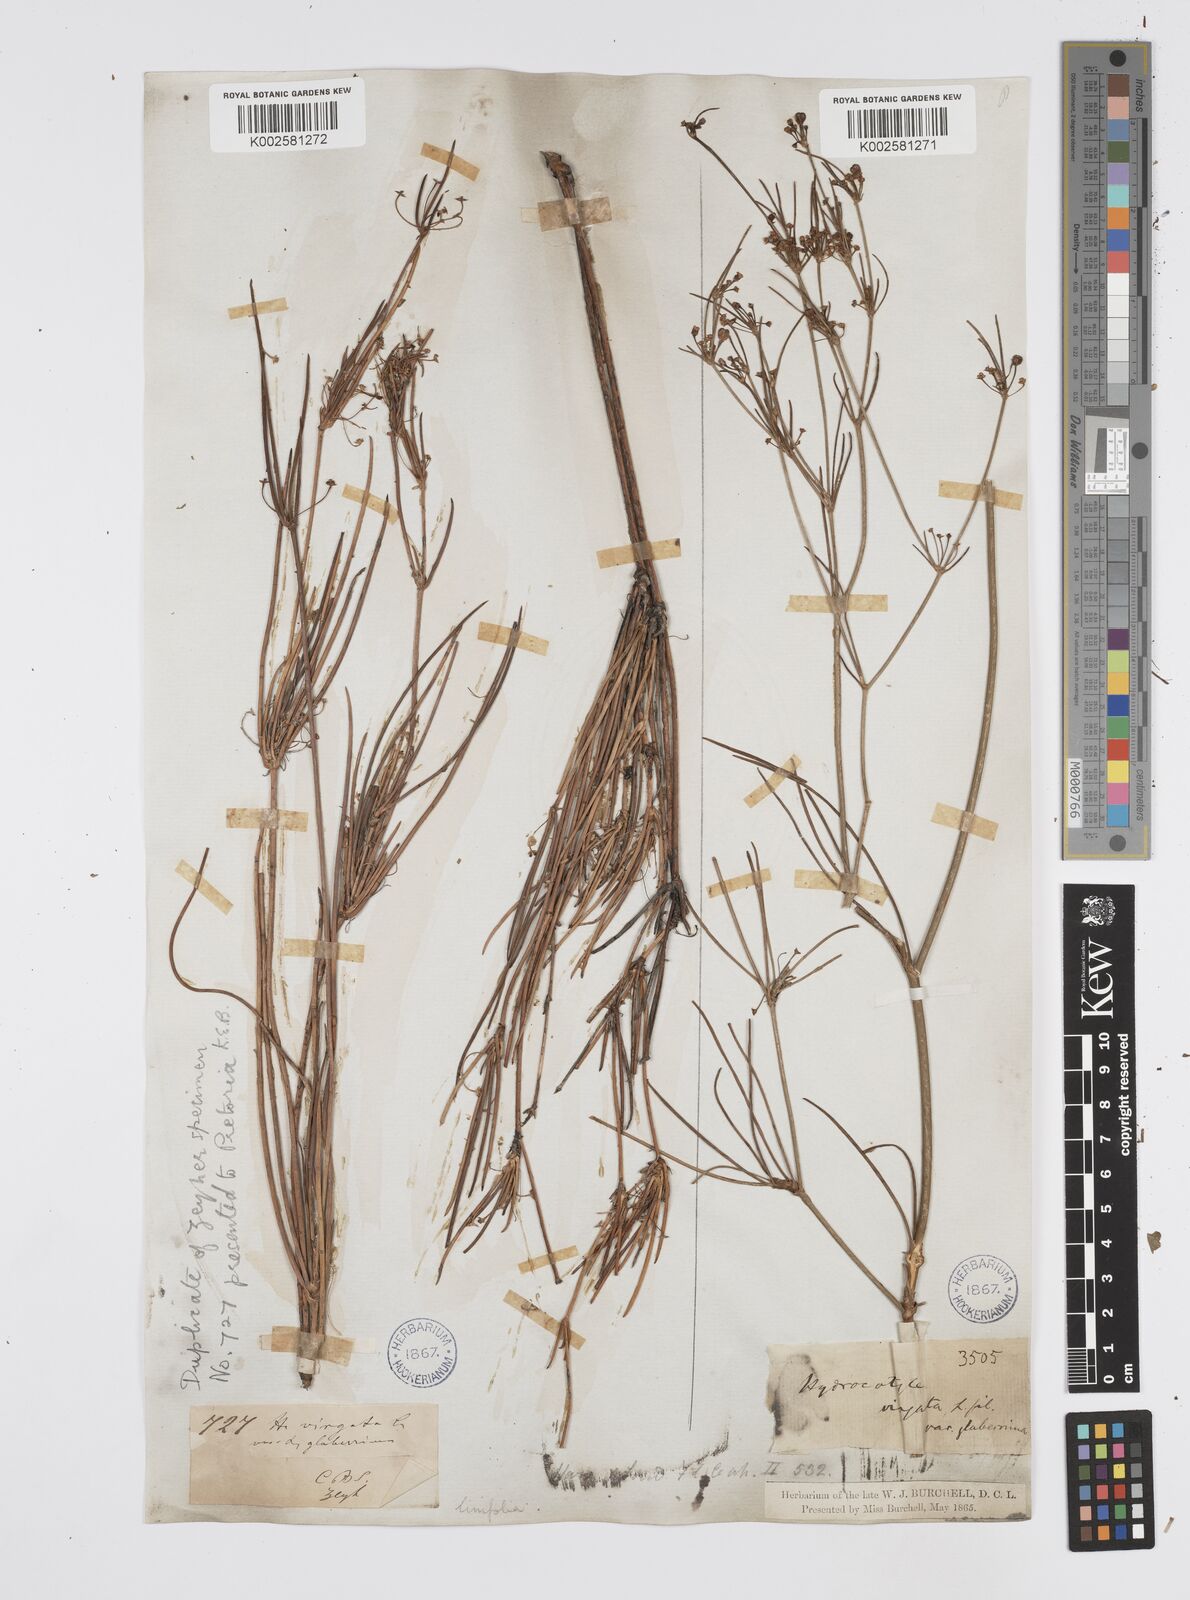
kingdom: Plantae
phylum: Tracheophyta
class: Magnoliopsida
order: Apiales
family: Apiaceae
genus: Centella
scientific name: Centella linifolia
